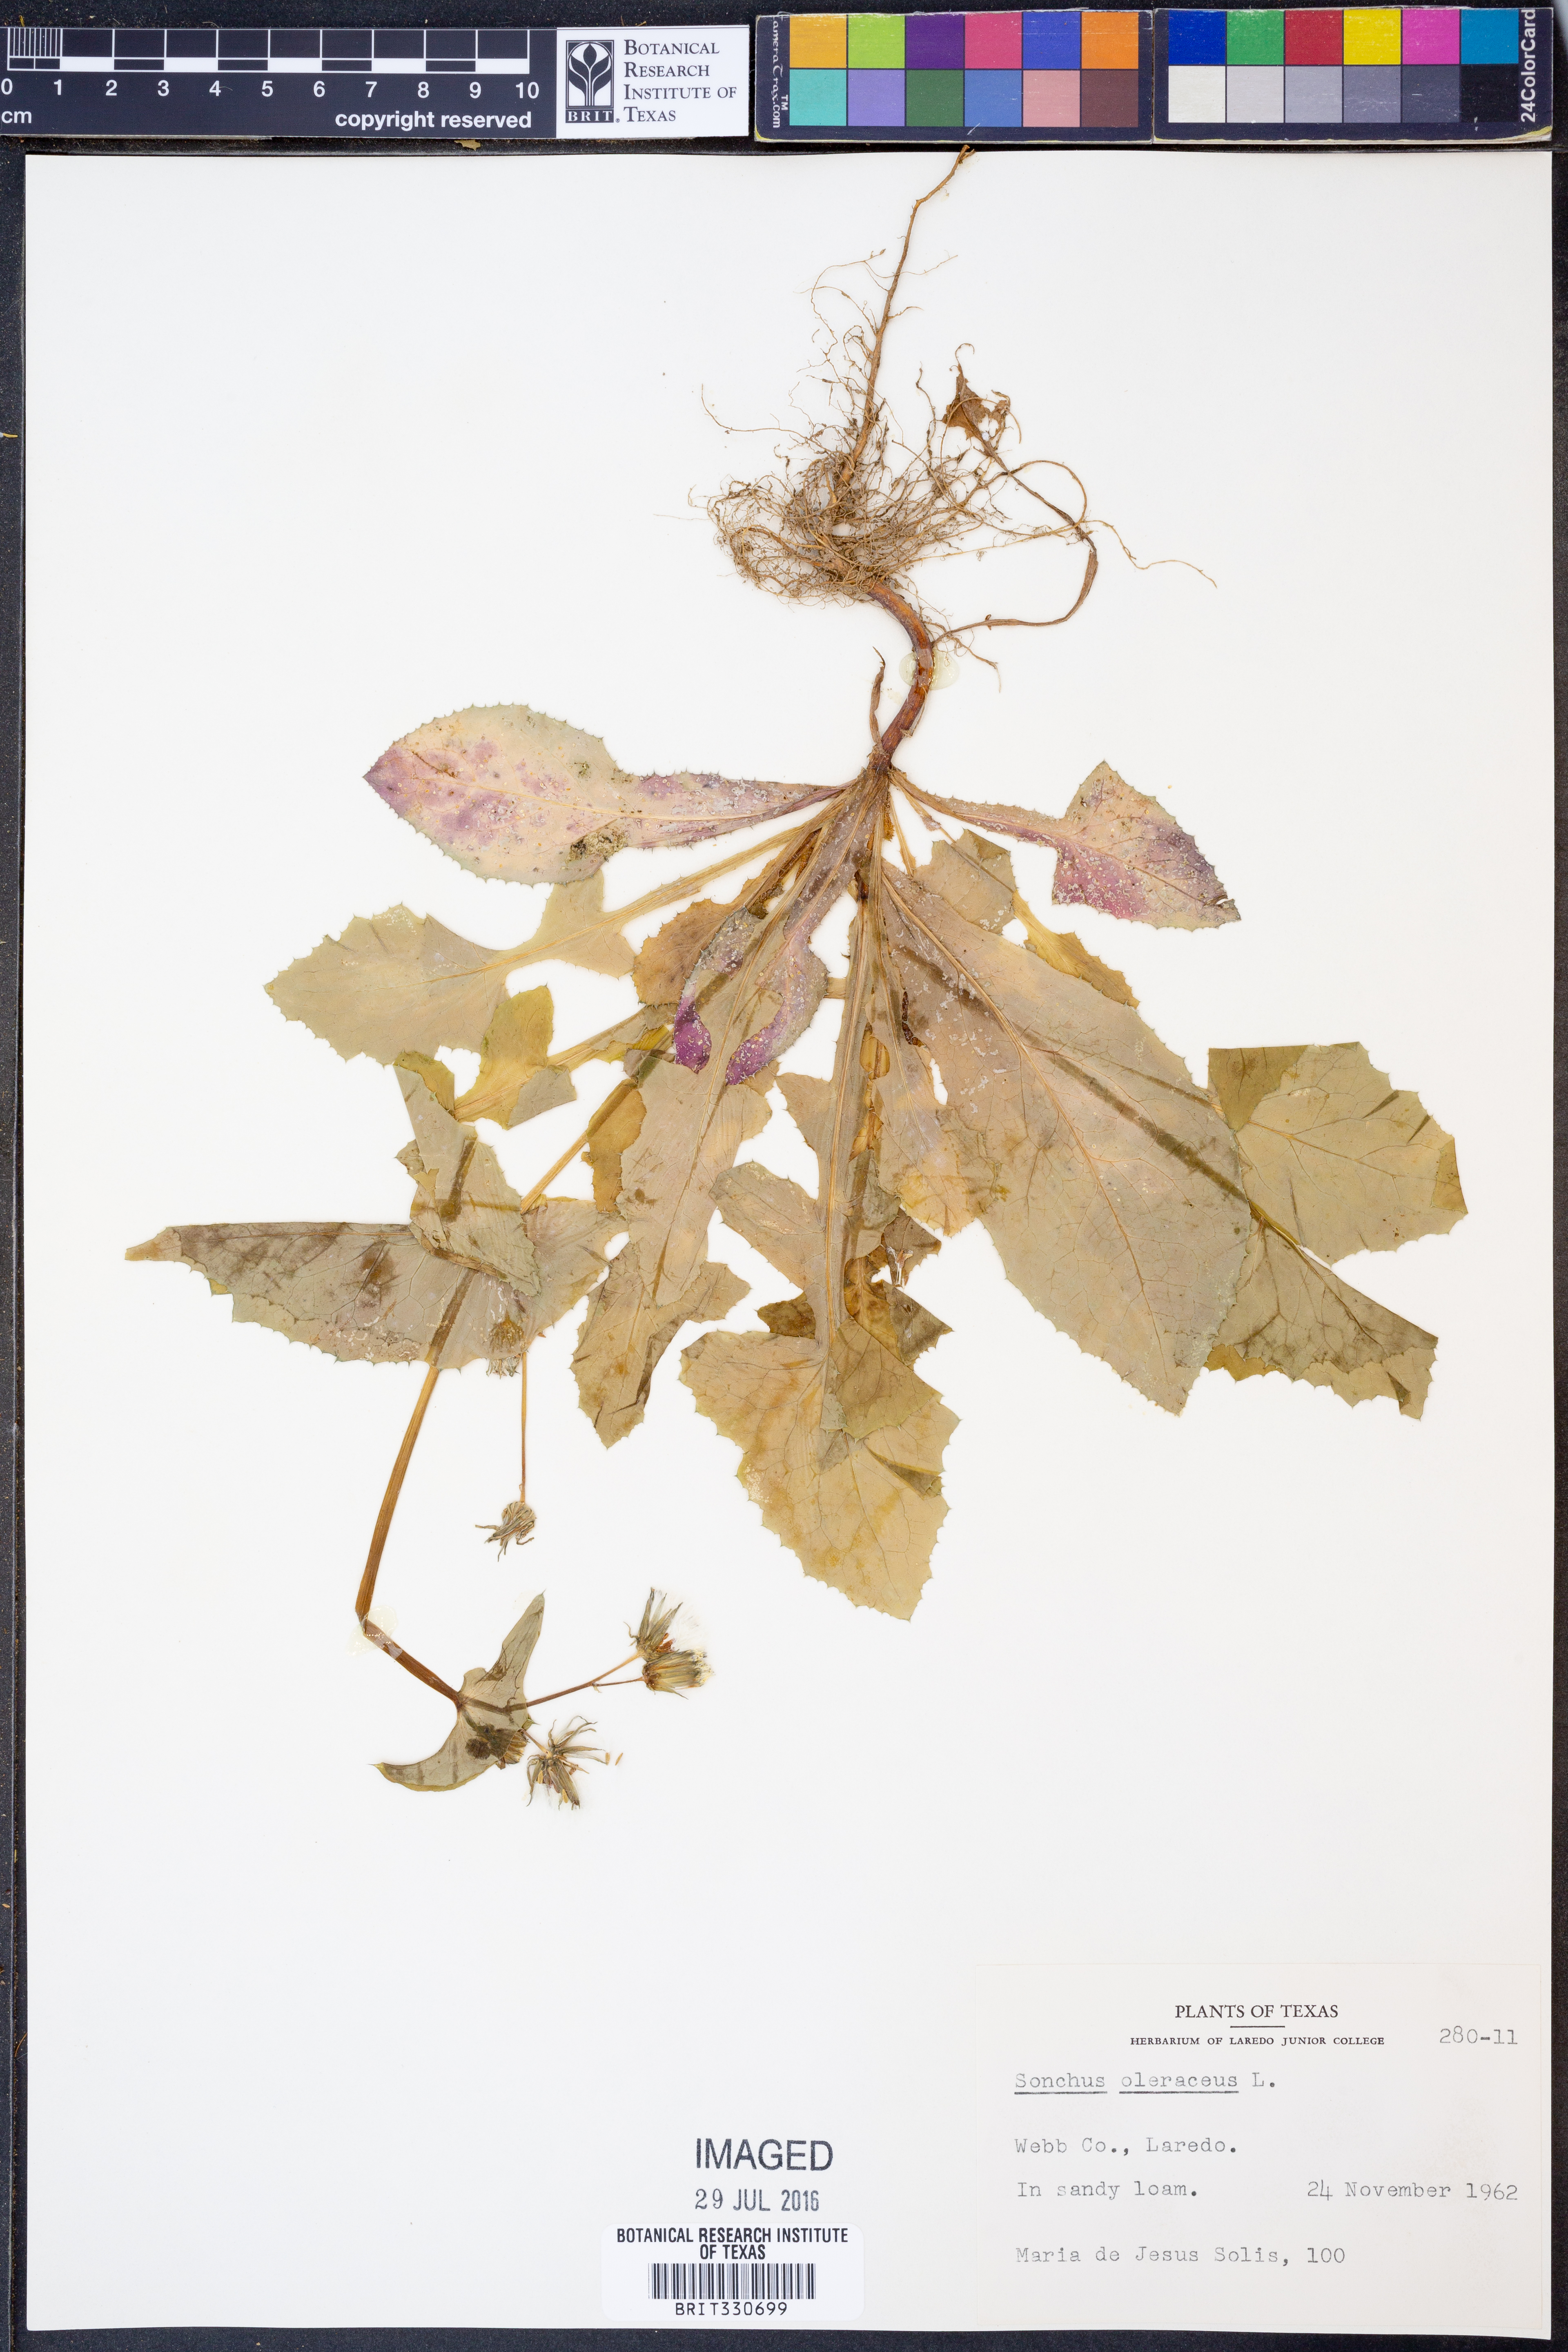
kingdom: Plantae
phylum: Tracheophyta
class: Magnoliopsida
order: Asterales
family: Asteraceae
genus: Sonchus
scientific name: Sonchus oleraceus
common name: Common sowthistle
